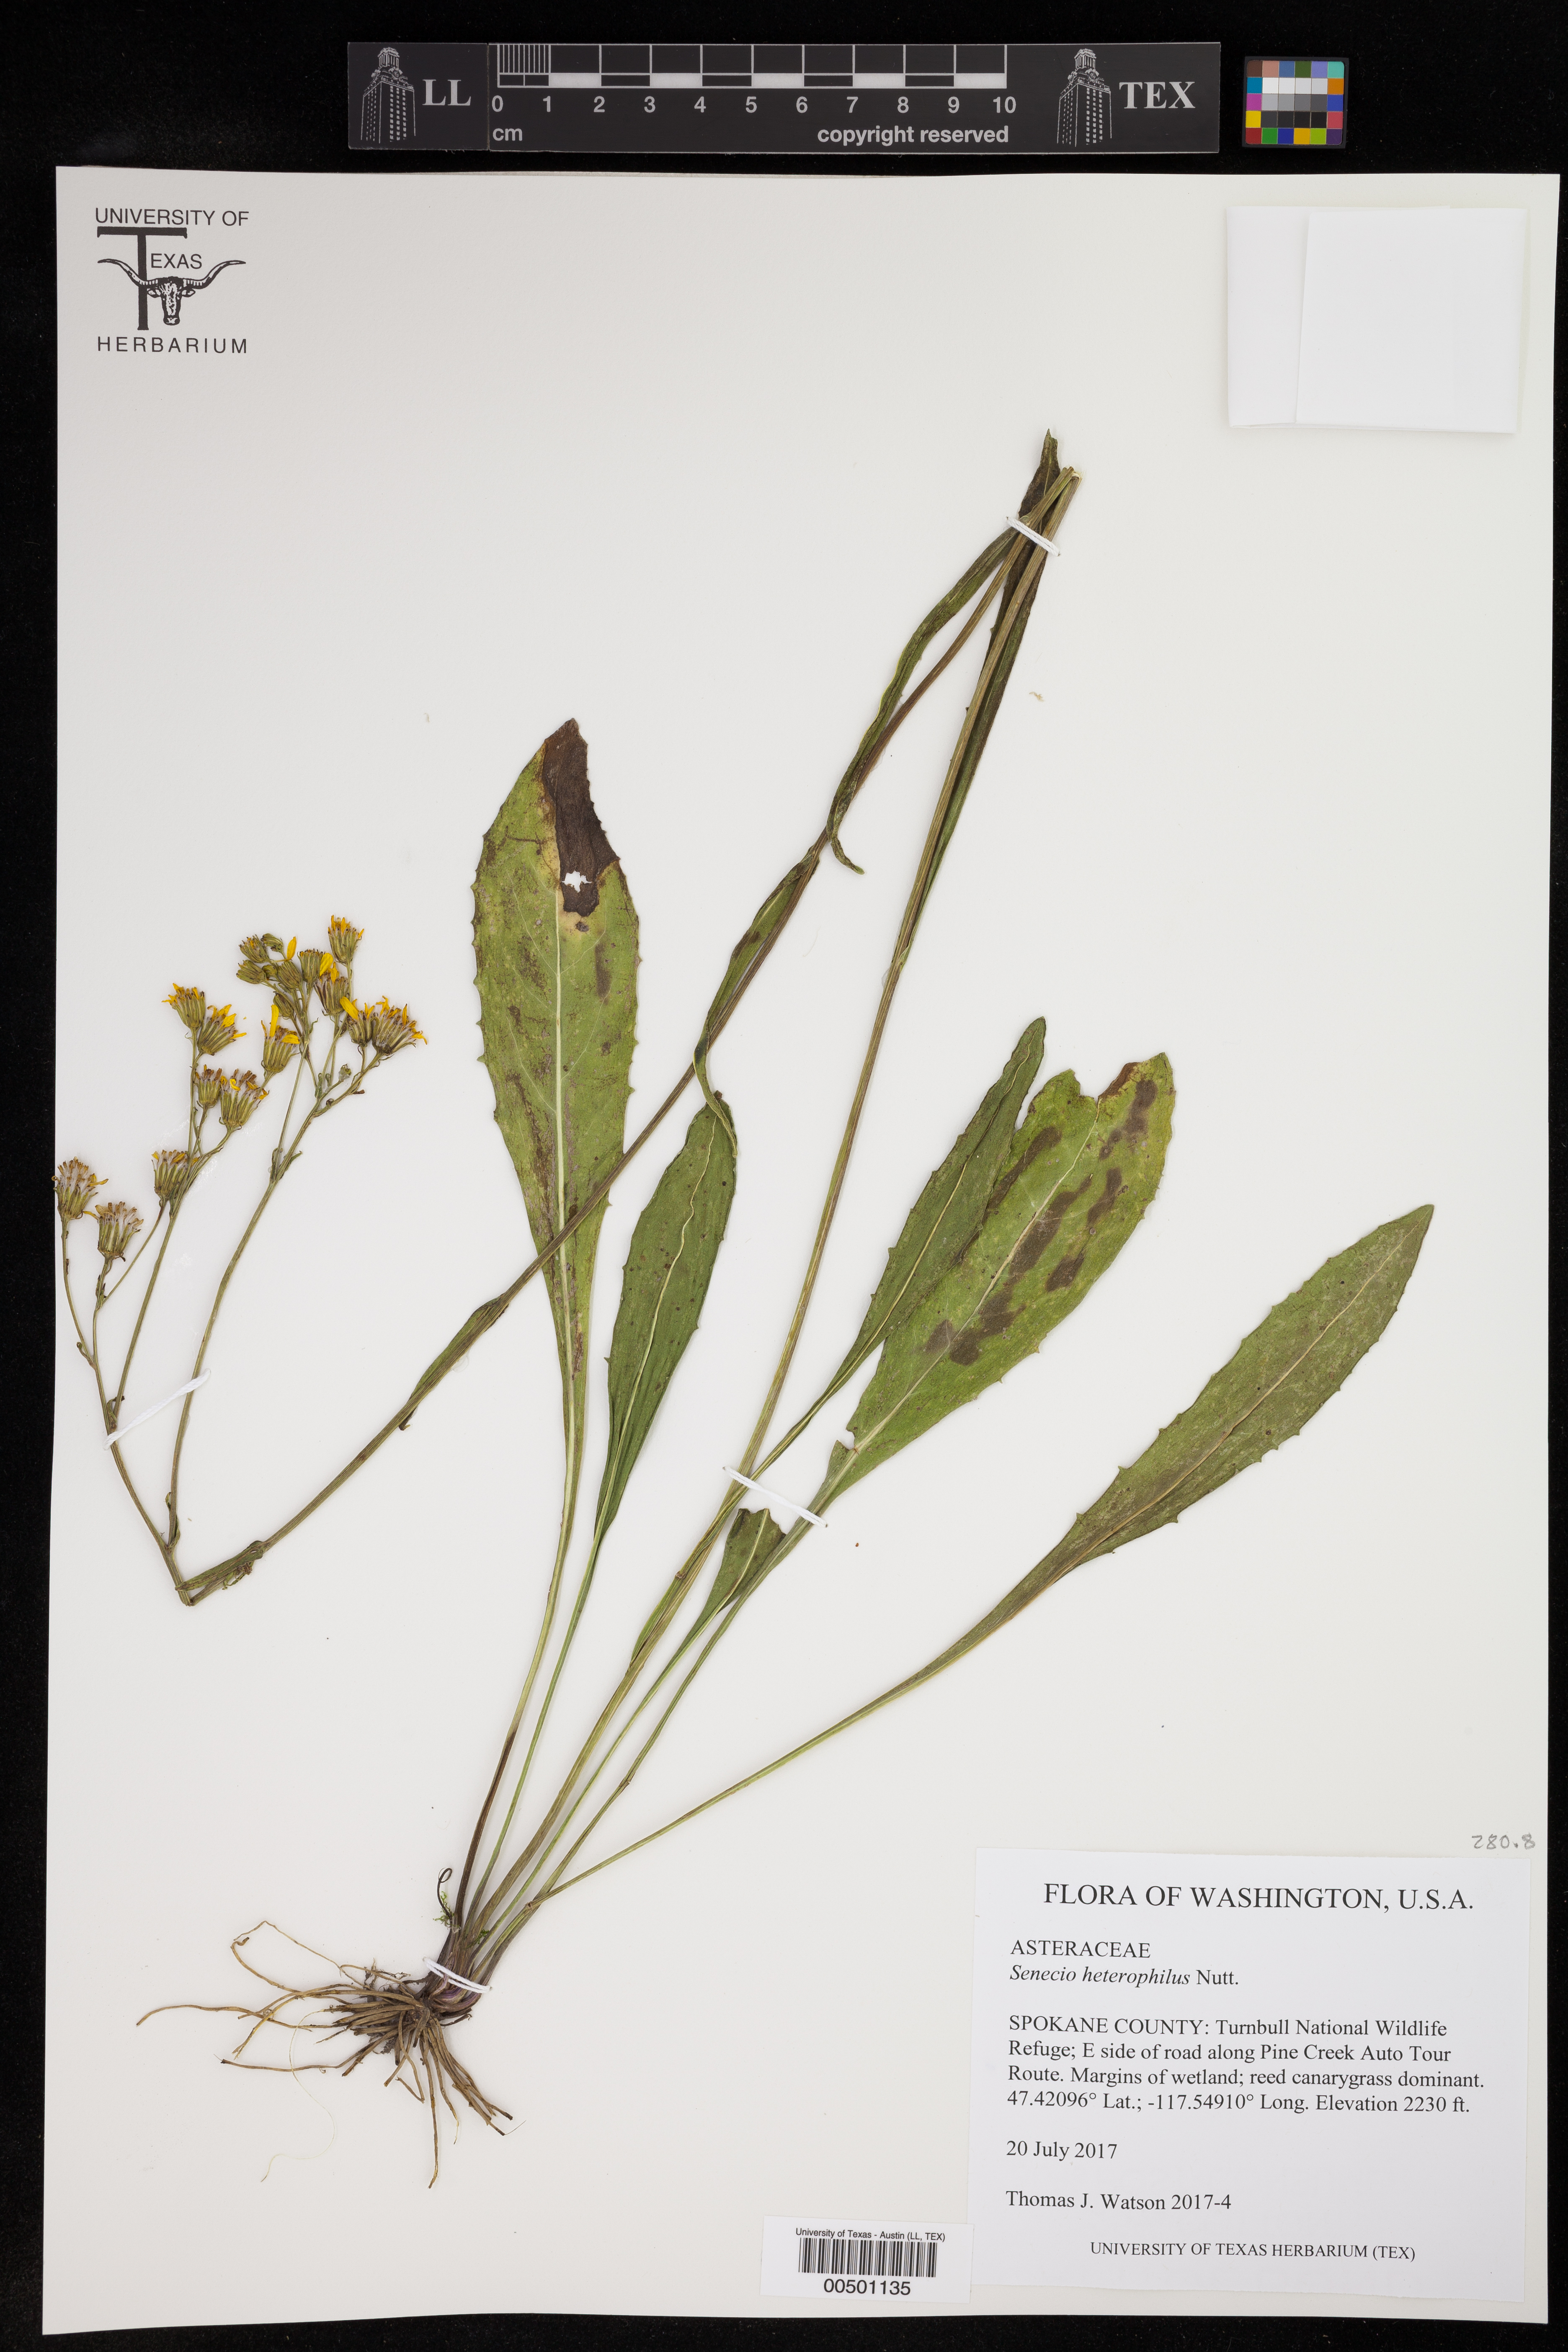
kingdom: Plantae
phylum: Tracheophyta
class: Magnoliopsida
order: Asterales
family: Asteraceae
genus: Senecio
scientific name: Senecio
